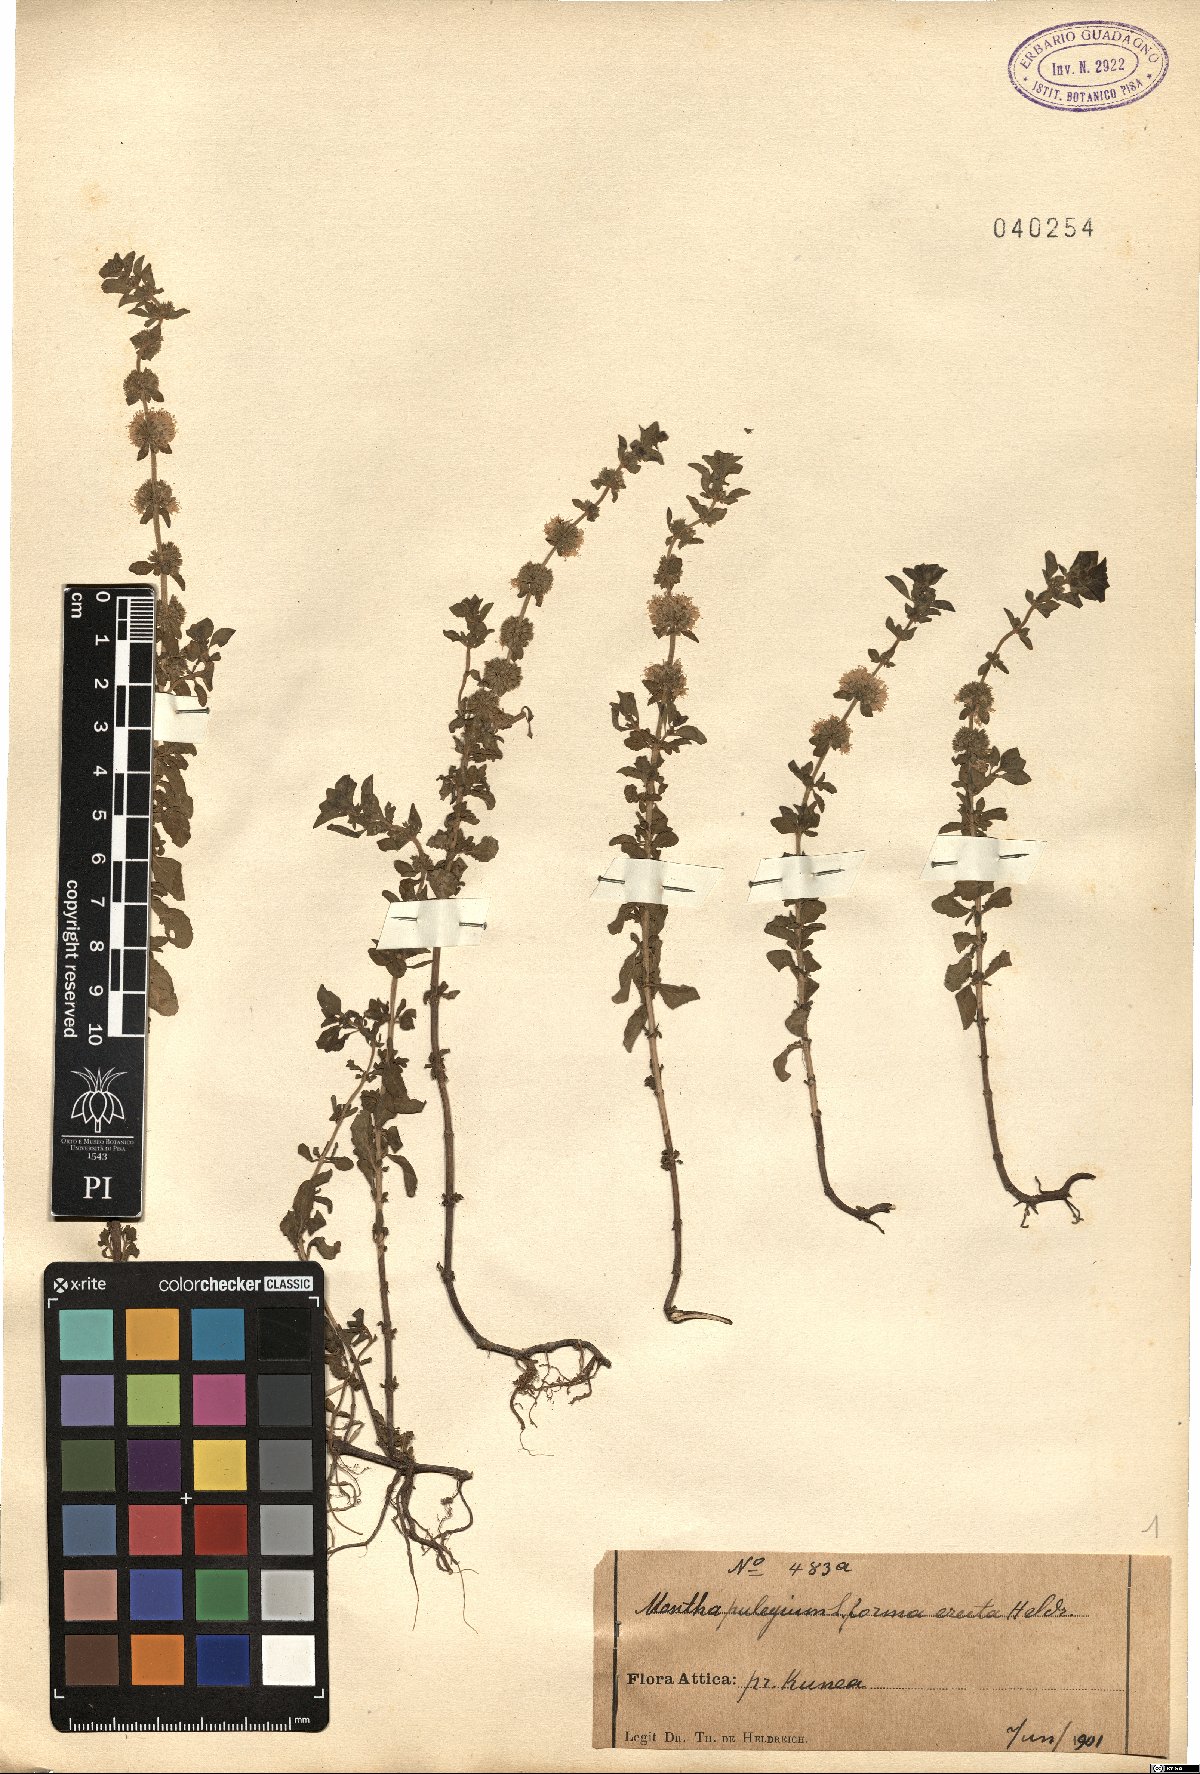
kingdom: Plantae
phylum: Tracheophyta
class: Magnoliopsida
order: Lamiales
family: Lamiaceae
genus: Mentha
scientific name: Mentha pulegium
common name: Pennyroyal
